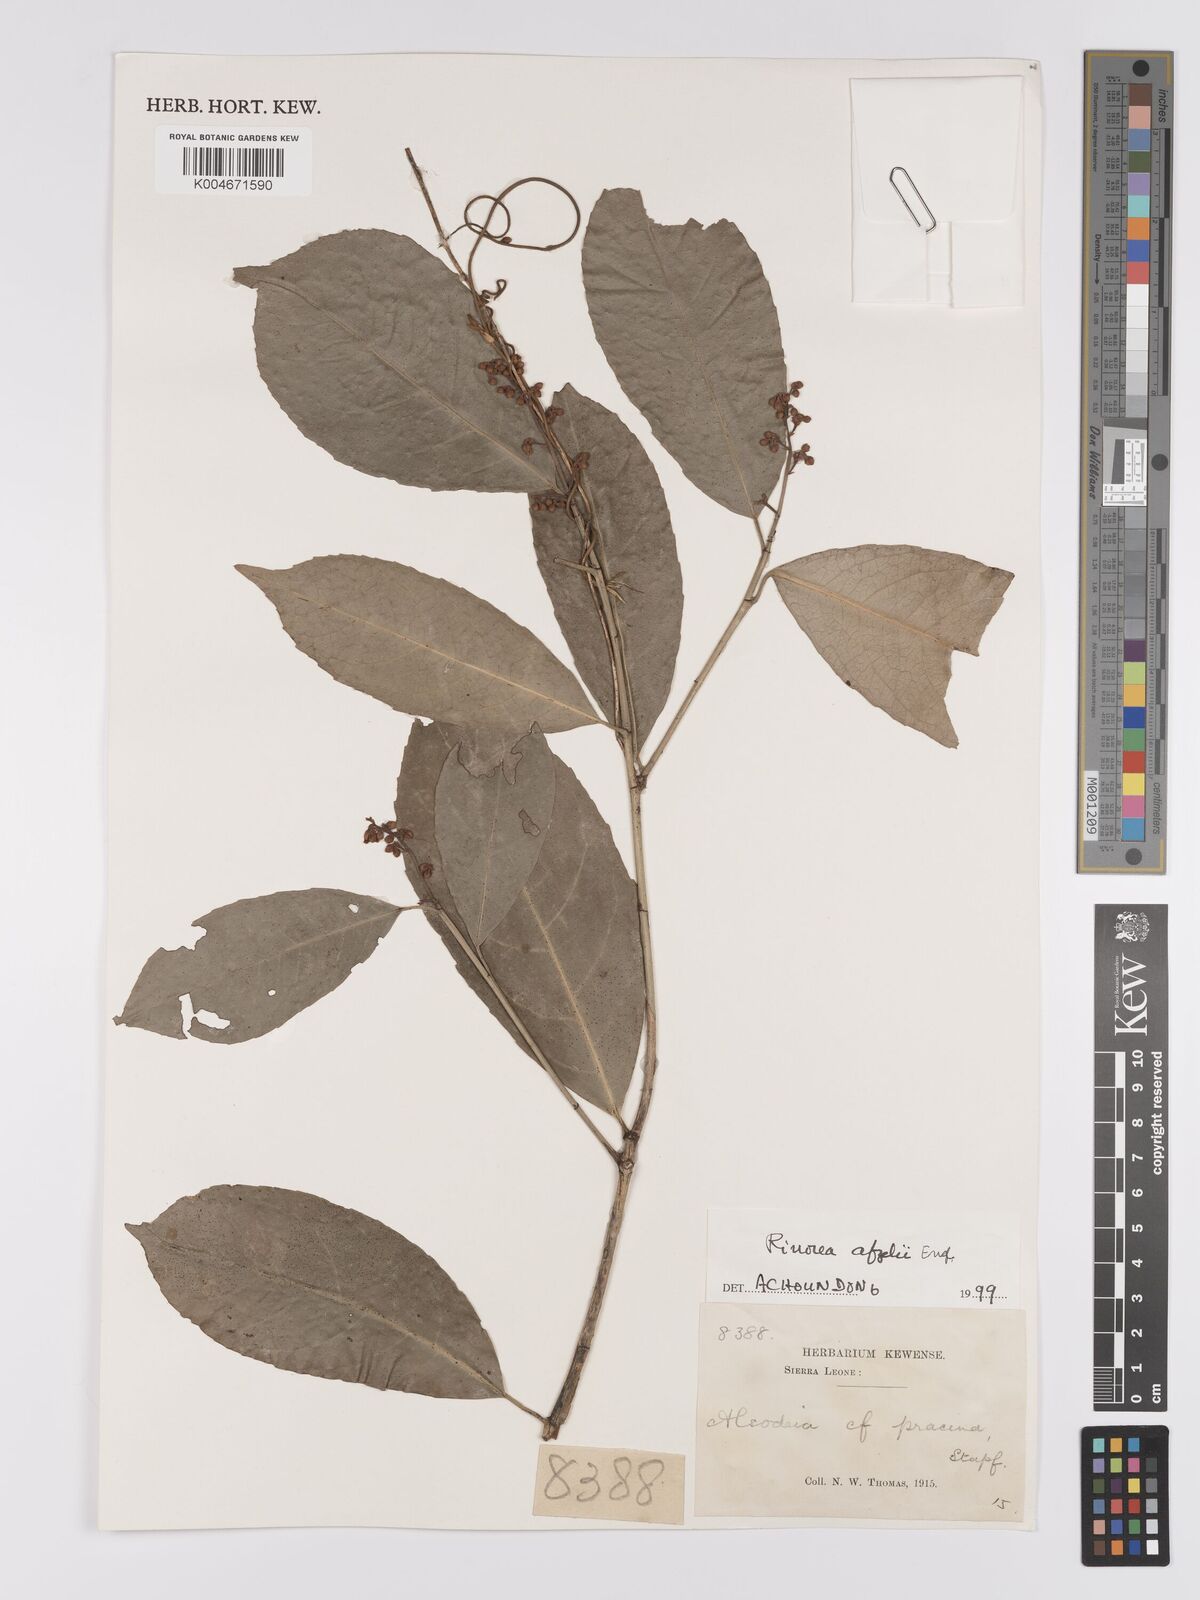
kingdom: Plantae
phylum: Tracheophyta
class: Magnoliopsida
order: Malpighiales
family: Violaceae
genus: Rinorea
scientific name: Rinorea afzelii
